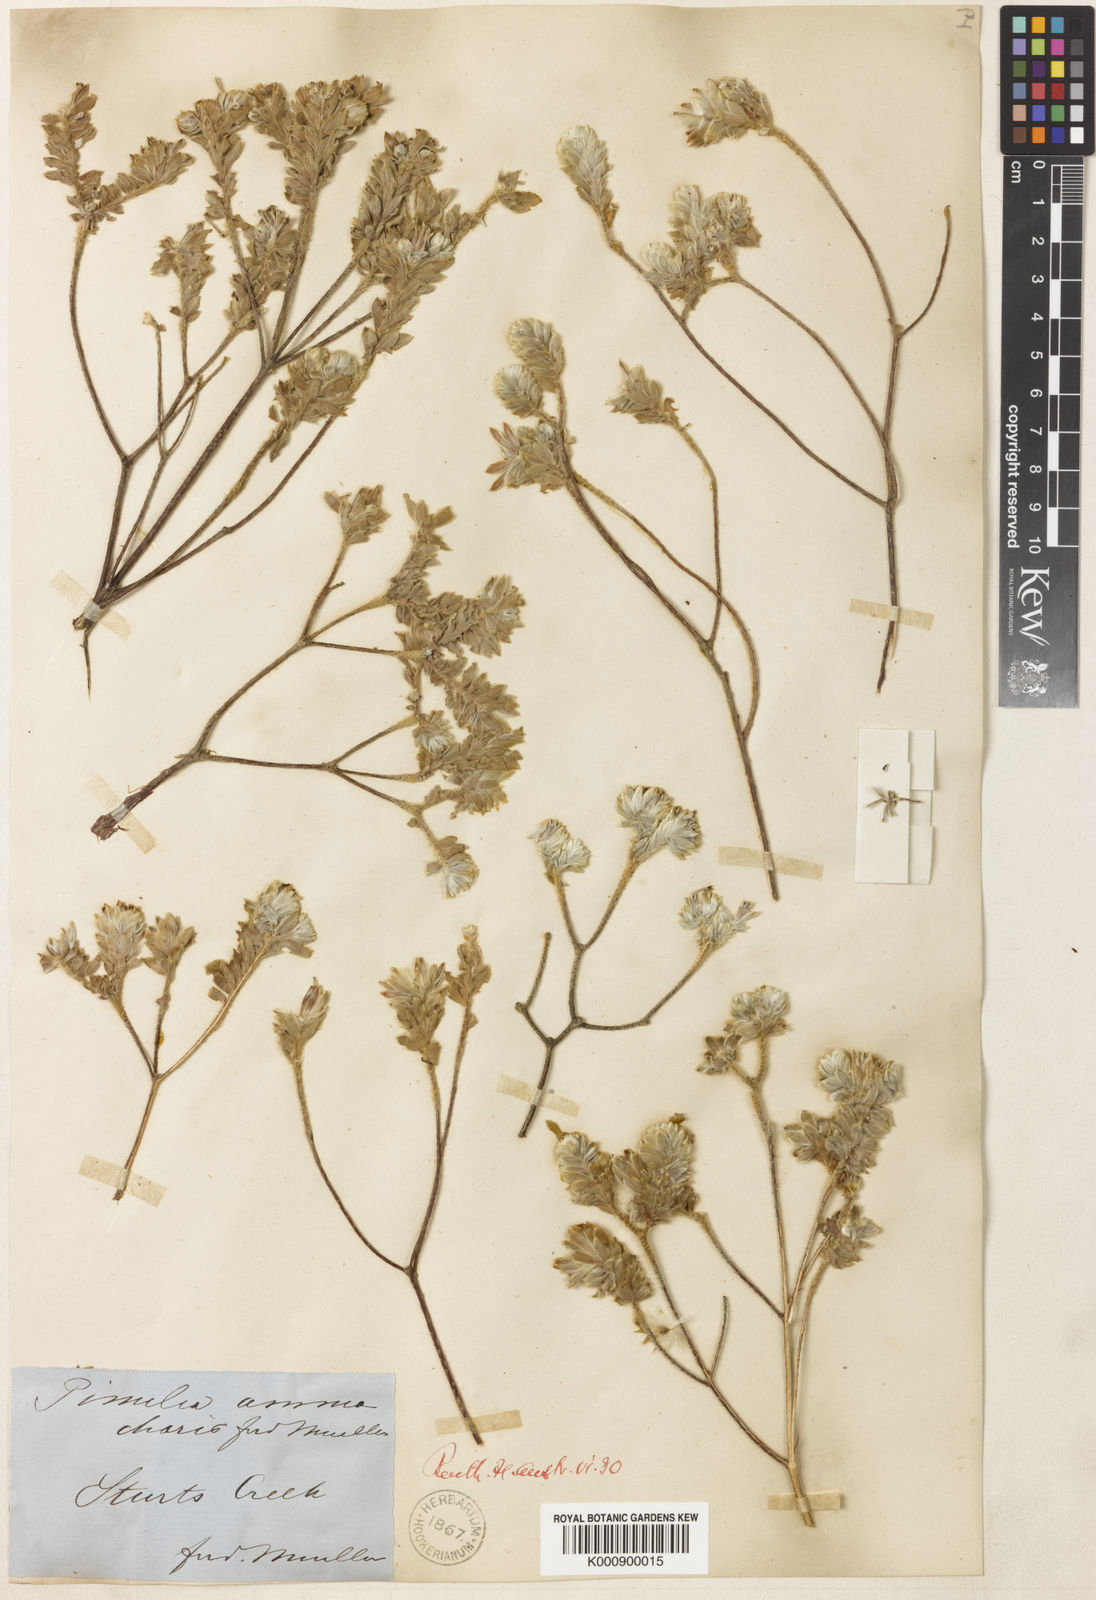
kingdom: Plantae
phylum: Tracheophyta
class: Magnoliopsida
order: Malvales
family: Thymelaeaceae
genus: Pimelea
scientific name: Pimelea ammocharis
